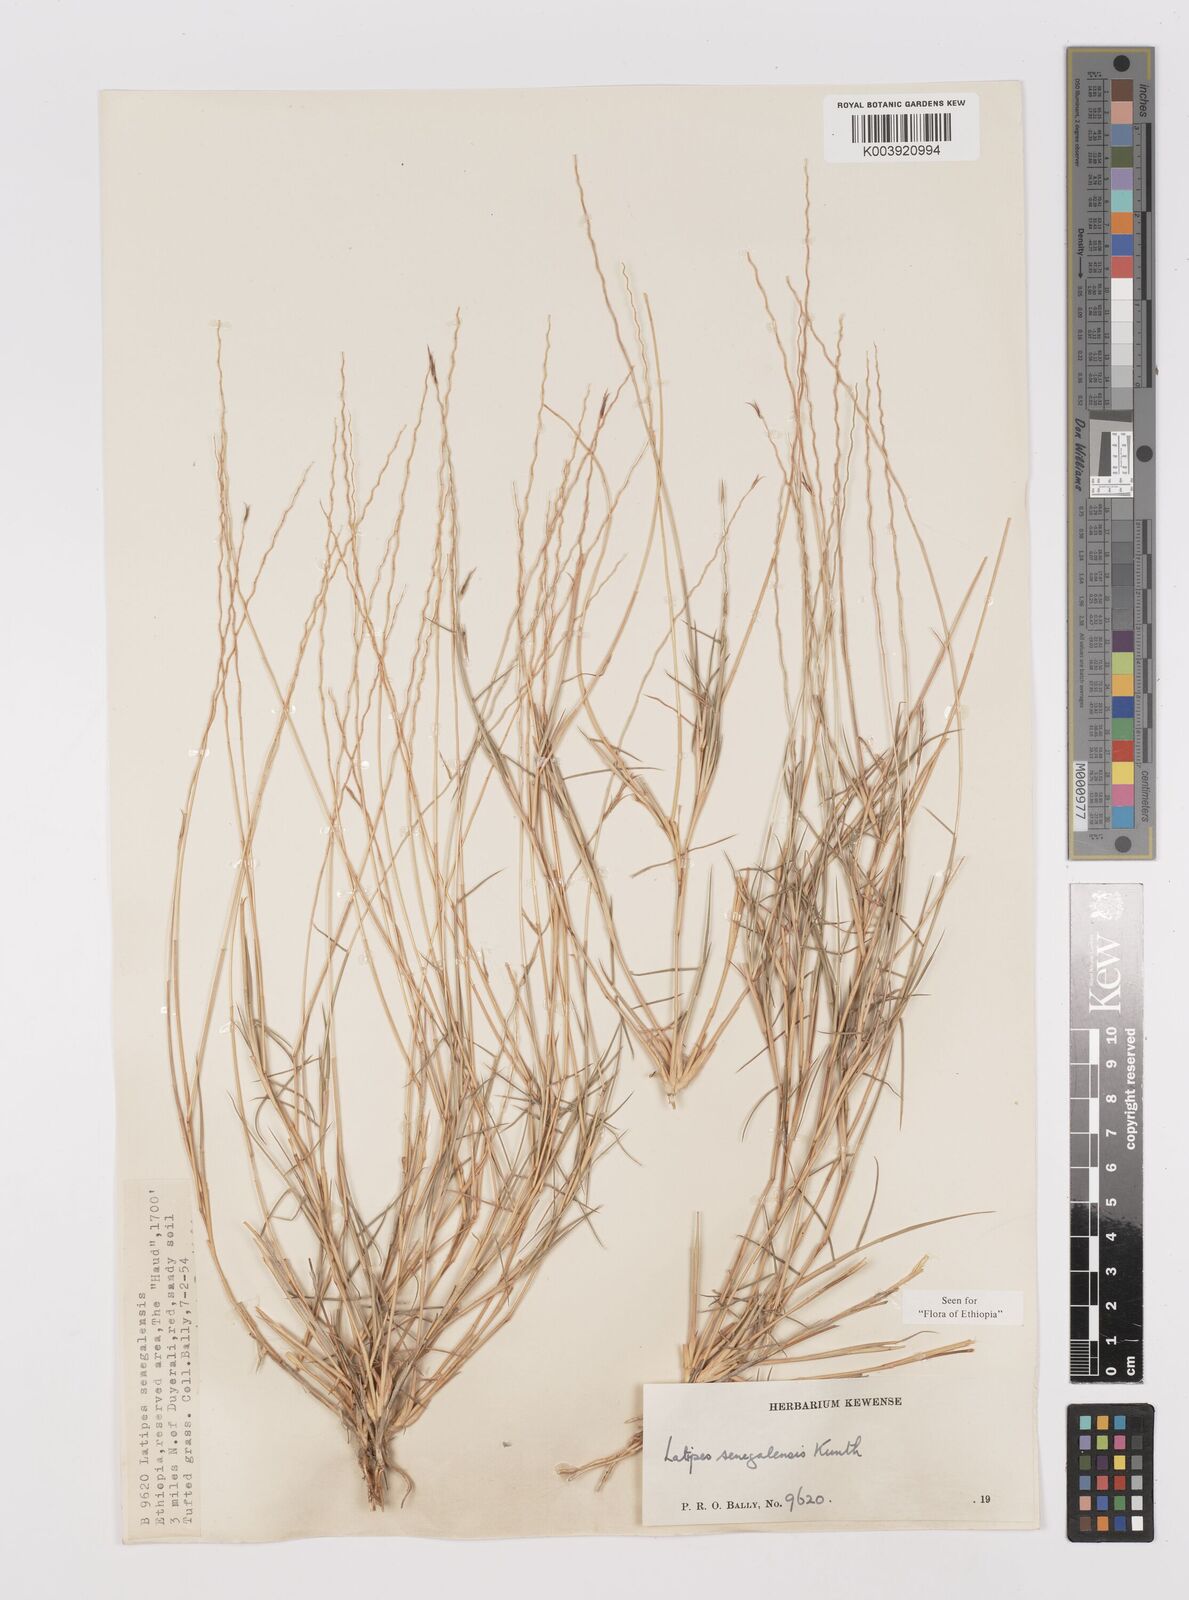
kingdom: Plantae
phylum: Tracheophyta
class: Liliopsida
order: Poales
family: Poaceae
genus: Leptothrium
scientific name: Leptothrium senegalense
